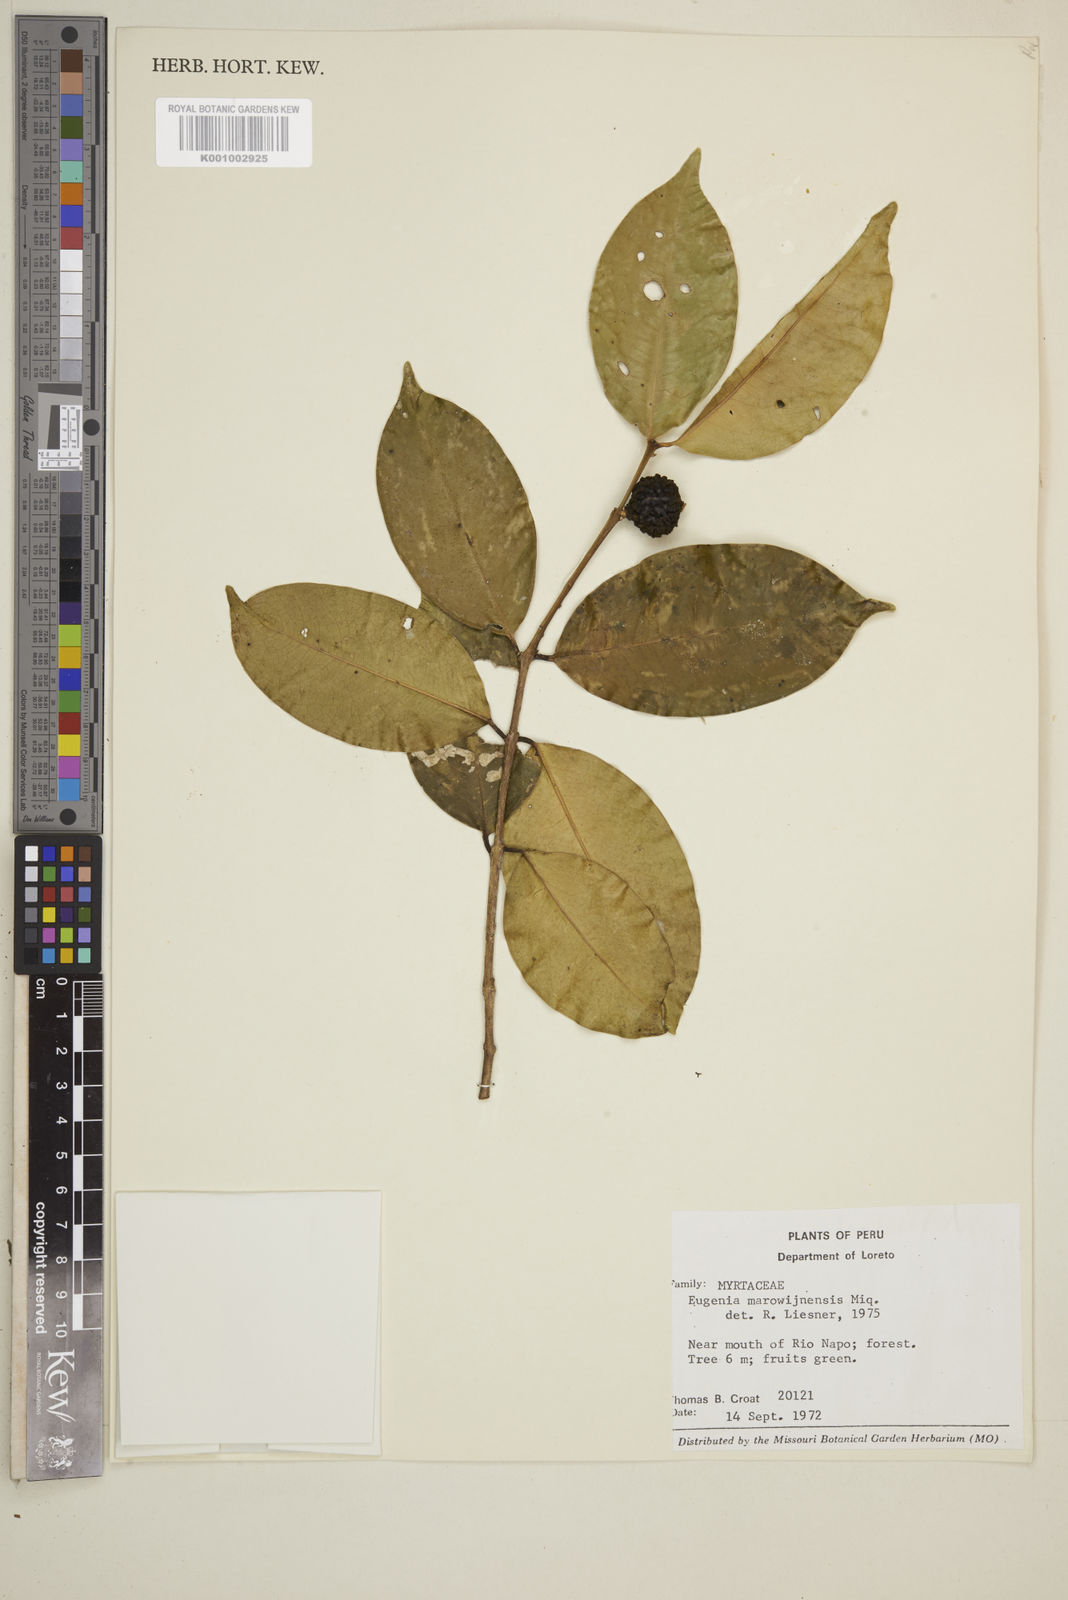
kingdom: Plantae
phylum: Tracheophyta
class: Magnoliopsida
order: Myrtales
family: Myrtaceae
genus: Eugenia
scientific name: Eugenia marowynensis
